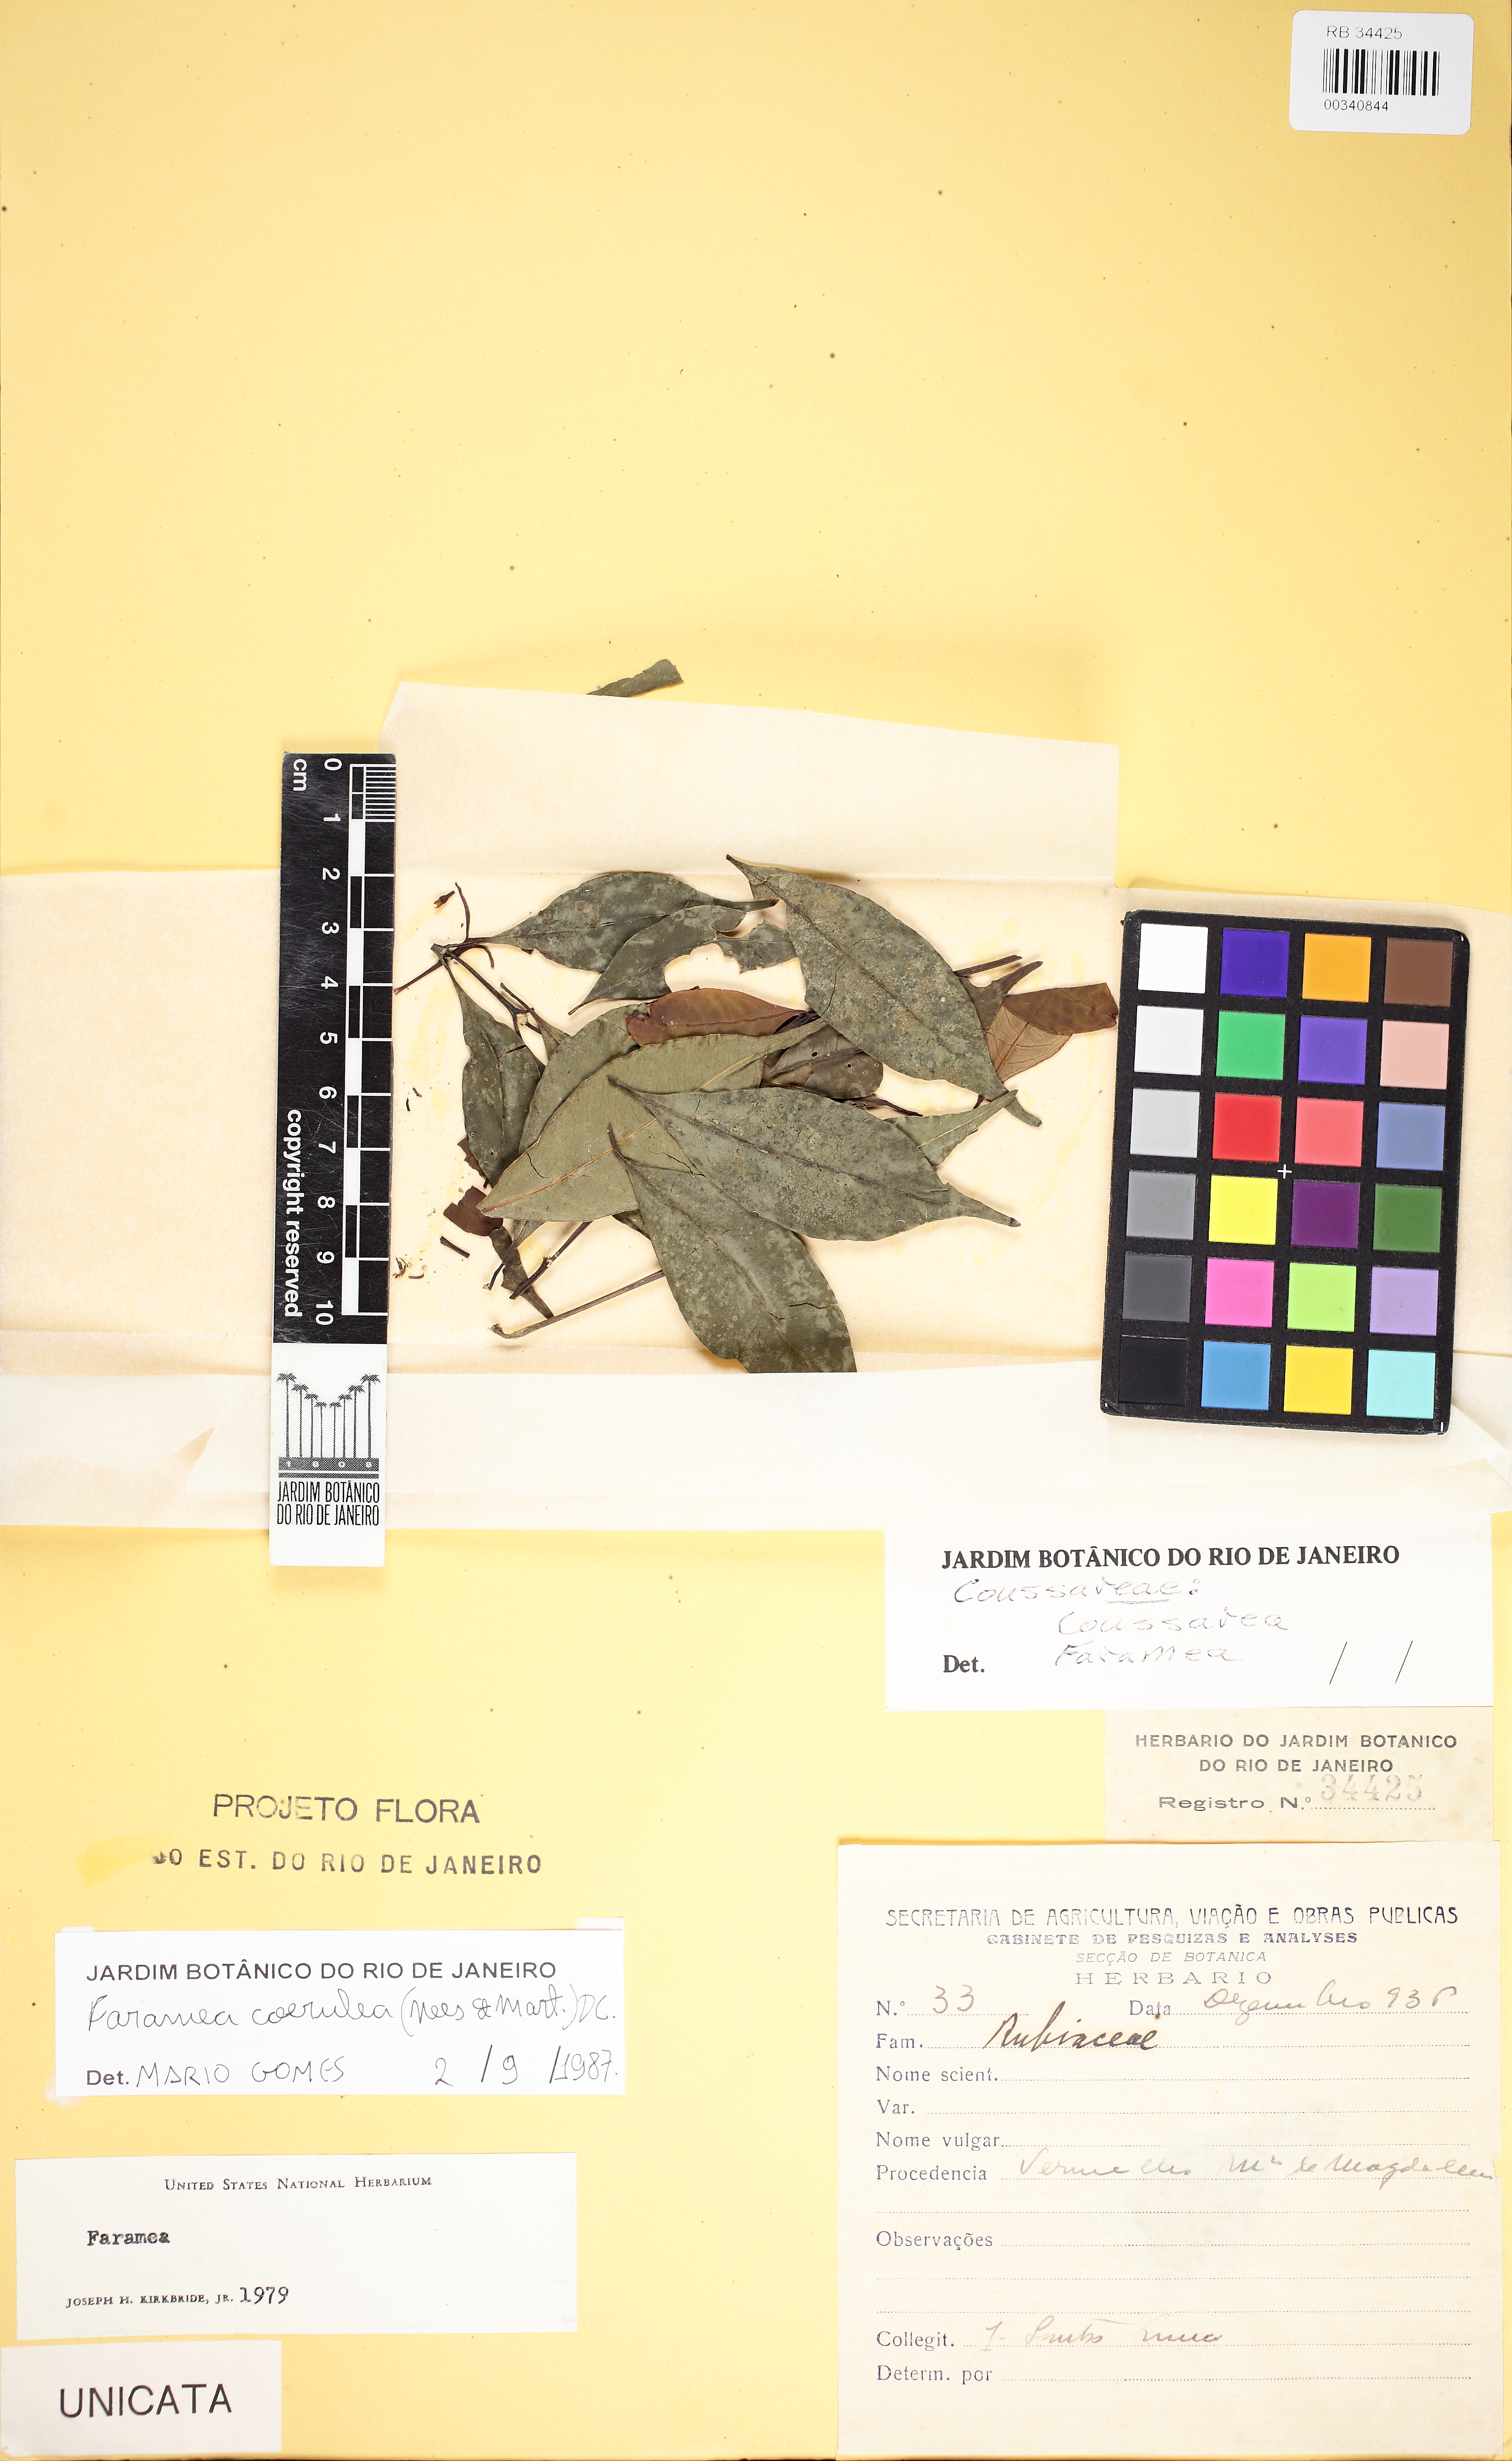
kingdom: Plantae
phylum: Tracheophyta
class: Magnoliopsida
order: Gentianales
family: Rubiaceae
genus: Faramea
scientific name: Faramea oligantha
